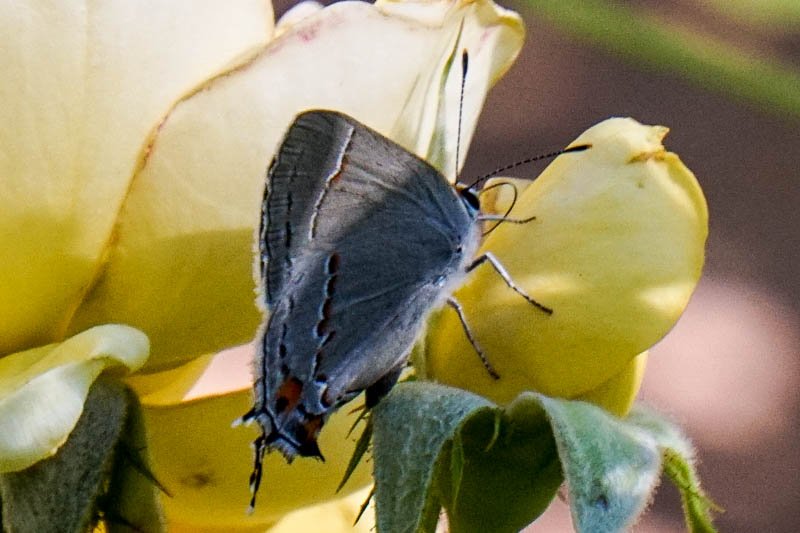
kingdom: Animalia
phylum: Arthropoda
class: Insecta
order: Lepidoptera
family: Lycaenidae
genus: Strymon
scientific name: Strymon melinus
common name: Gray Hairstreak
